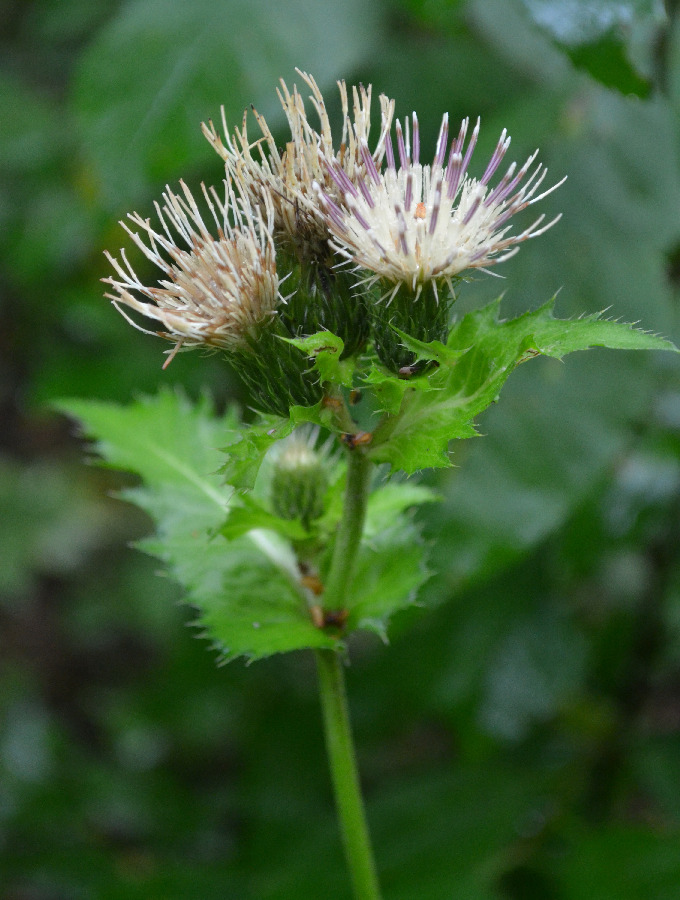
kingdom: Plantae
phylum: Tracheophyta
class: Magnoliopsida
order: Asterales
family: Asteraceae
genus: Cirsium
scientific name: Cirsium oleraceum
